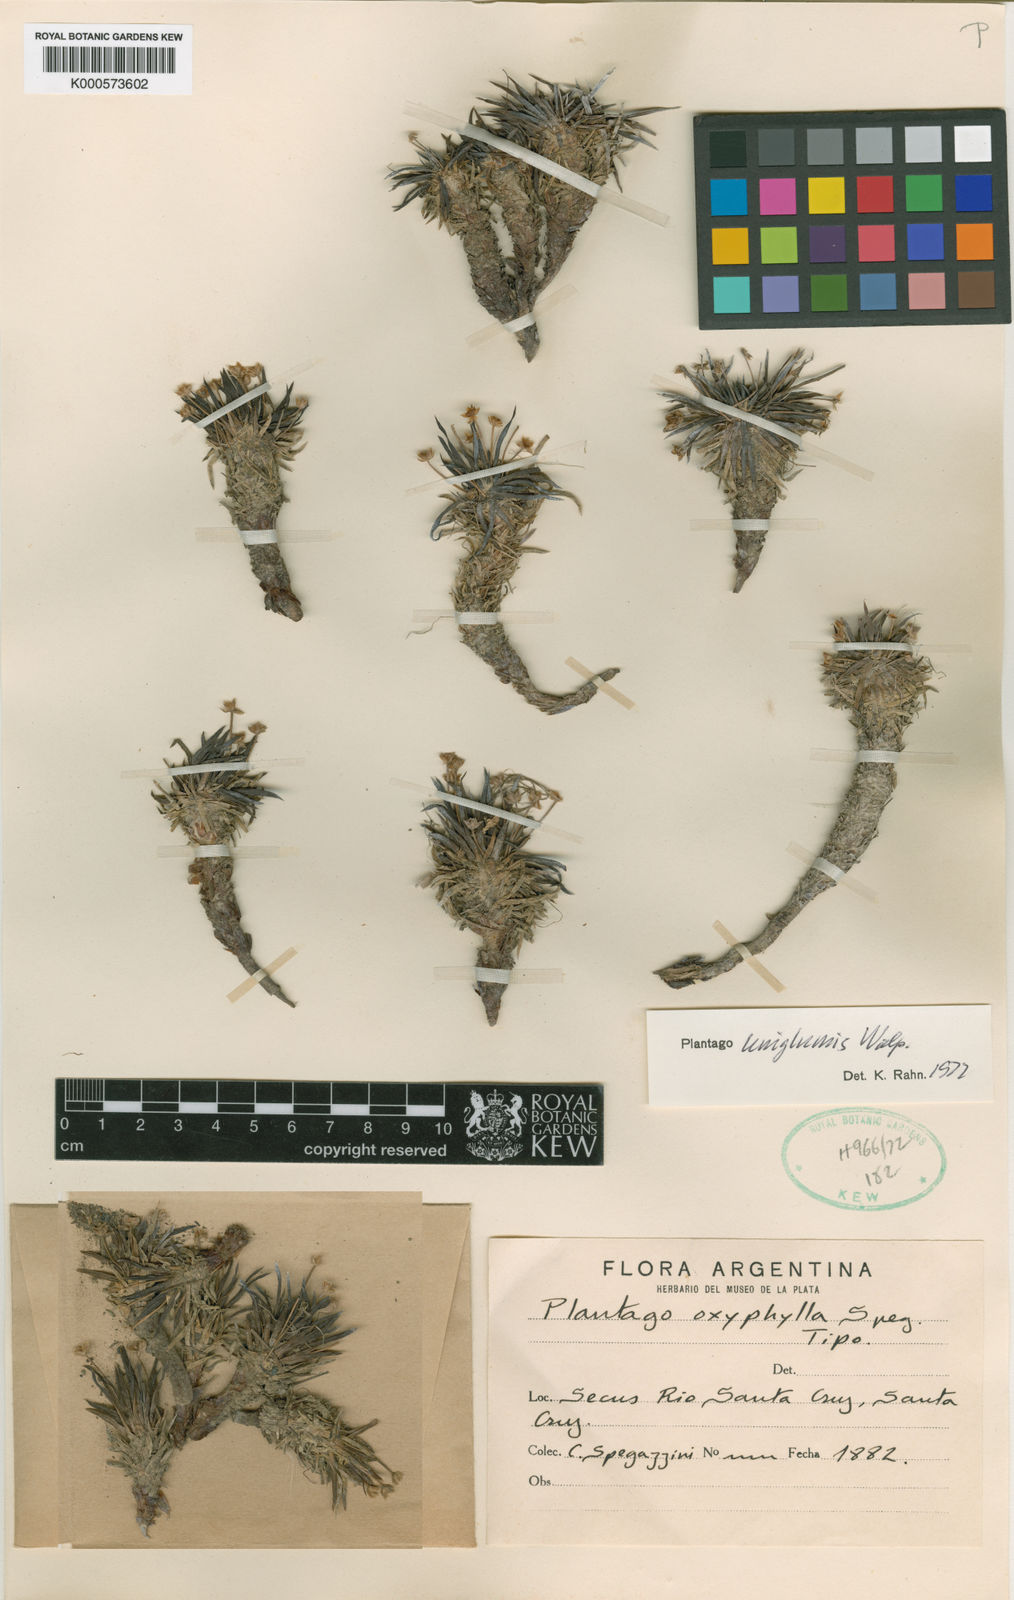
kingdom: Plantae
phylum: Tracheophyta
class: Magnoliopsida
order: Lamiales
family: Plantaginaceae
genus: Plantago
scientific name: Plantago uniglumis
